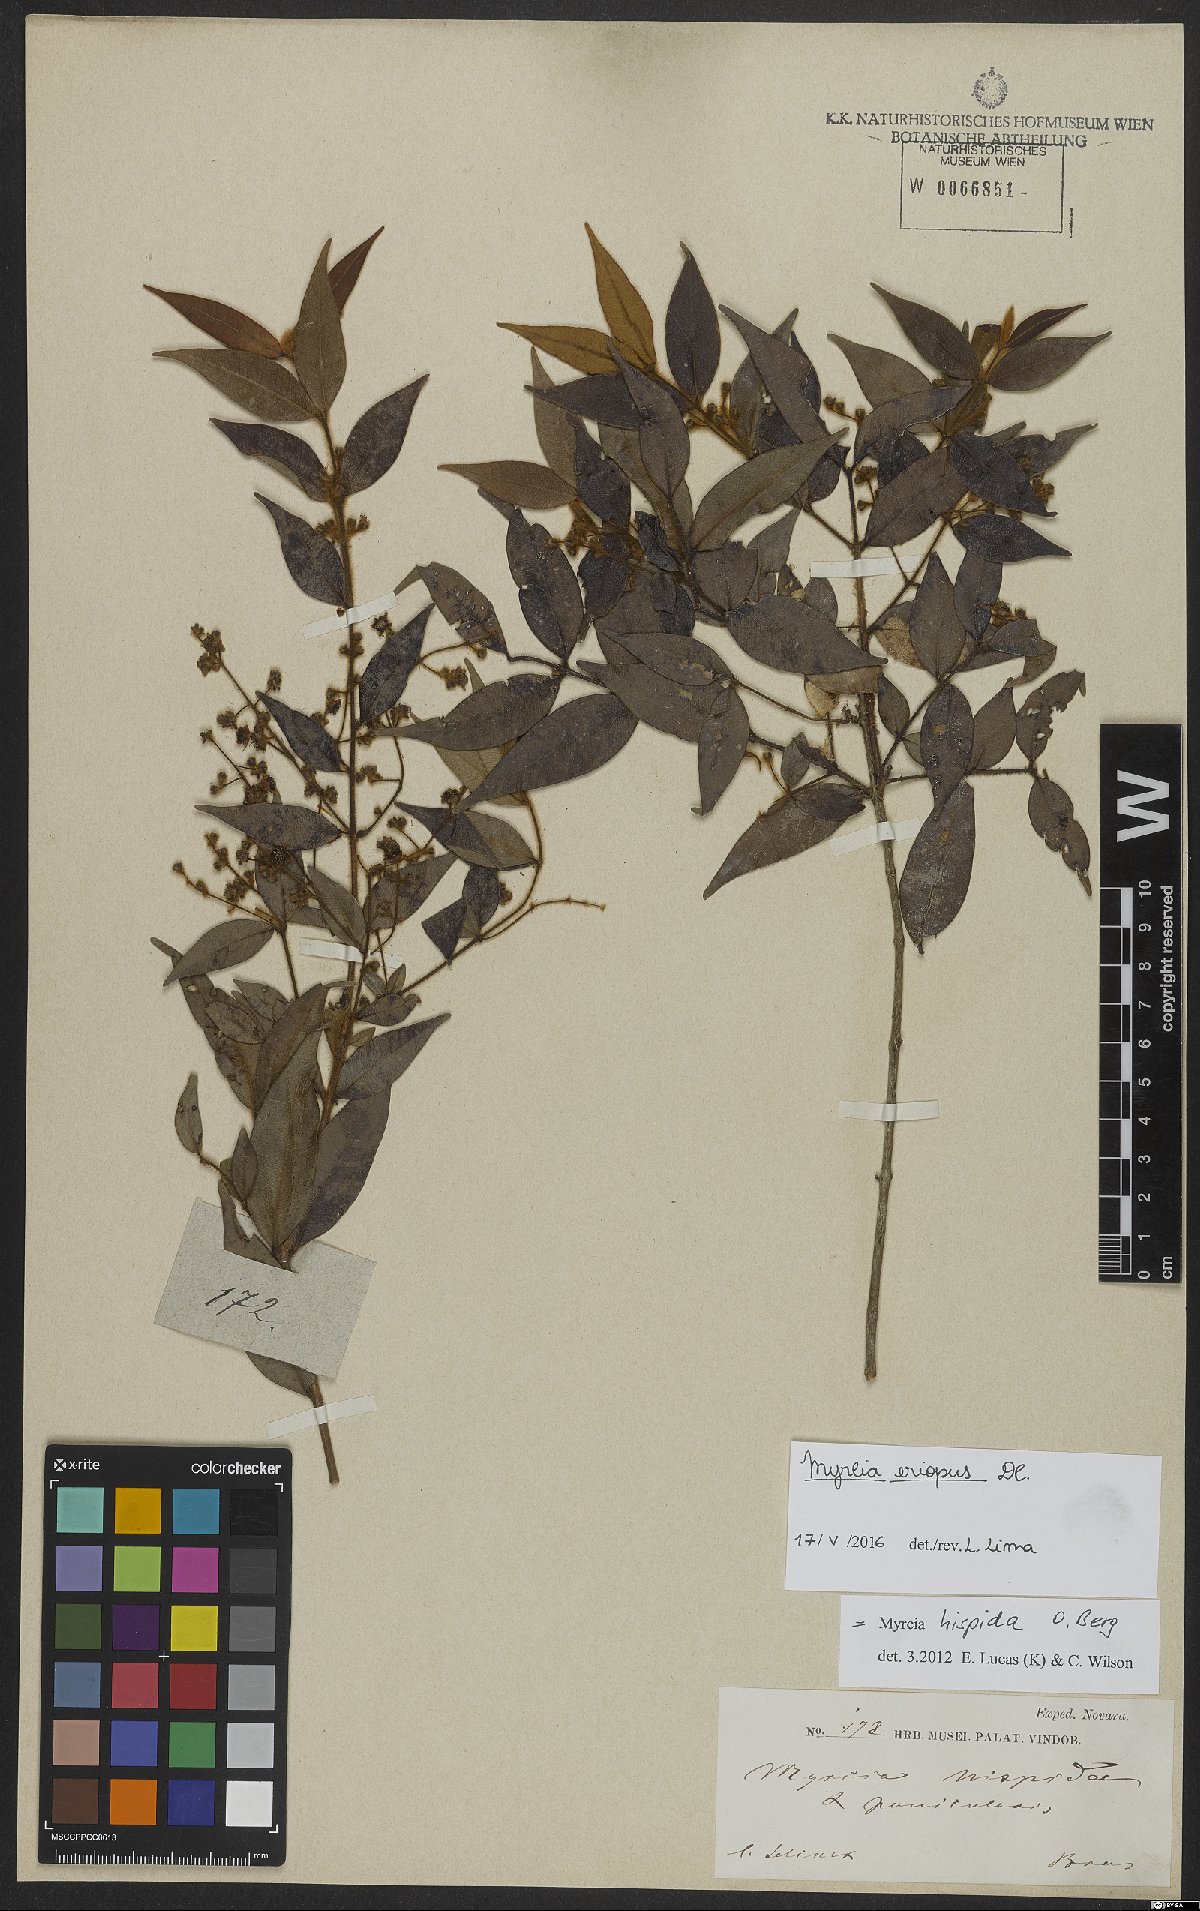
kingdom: Plantae
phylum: Tracheophyta
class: Magnoliopsida
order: Myrtales
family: Myrtaceae
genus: Myrcia
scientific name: Myrcia eriopus
